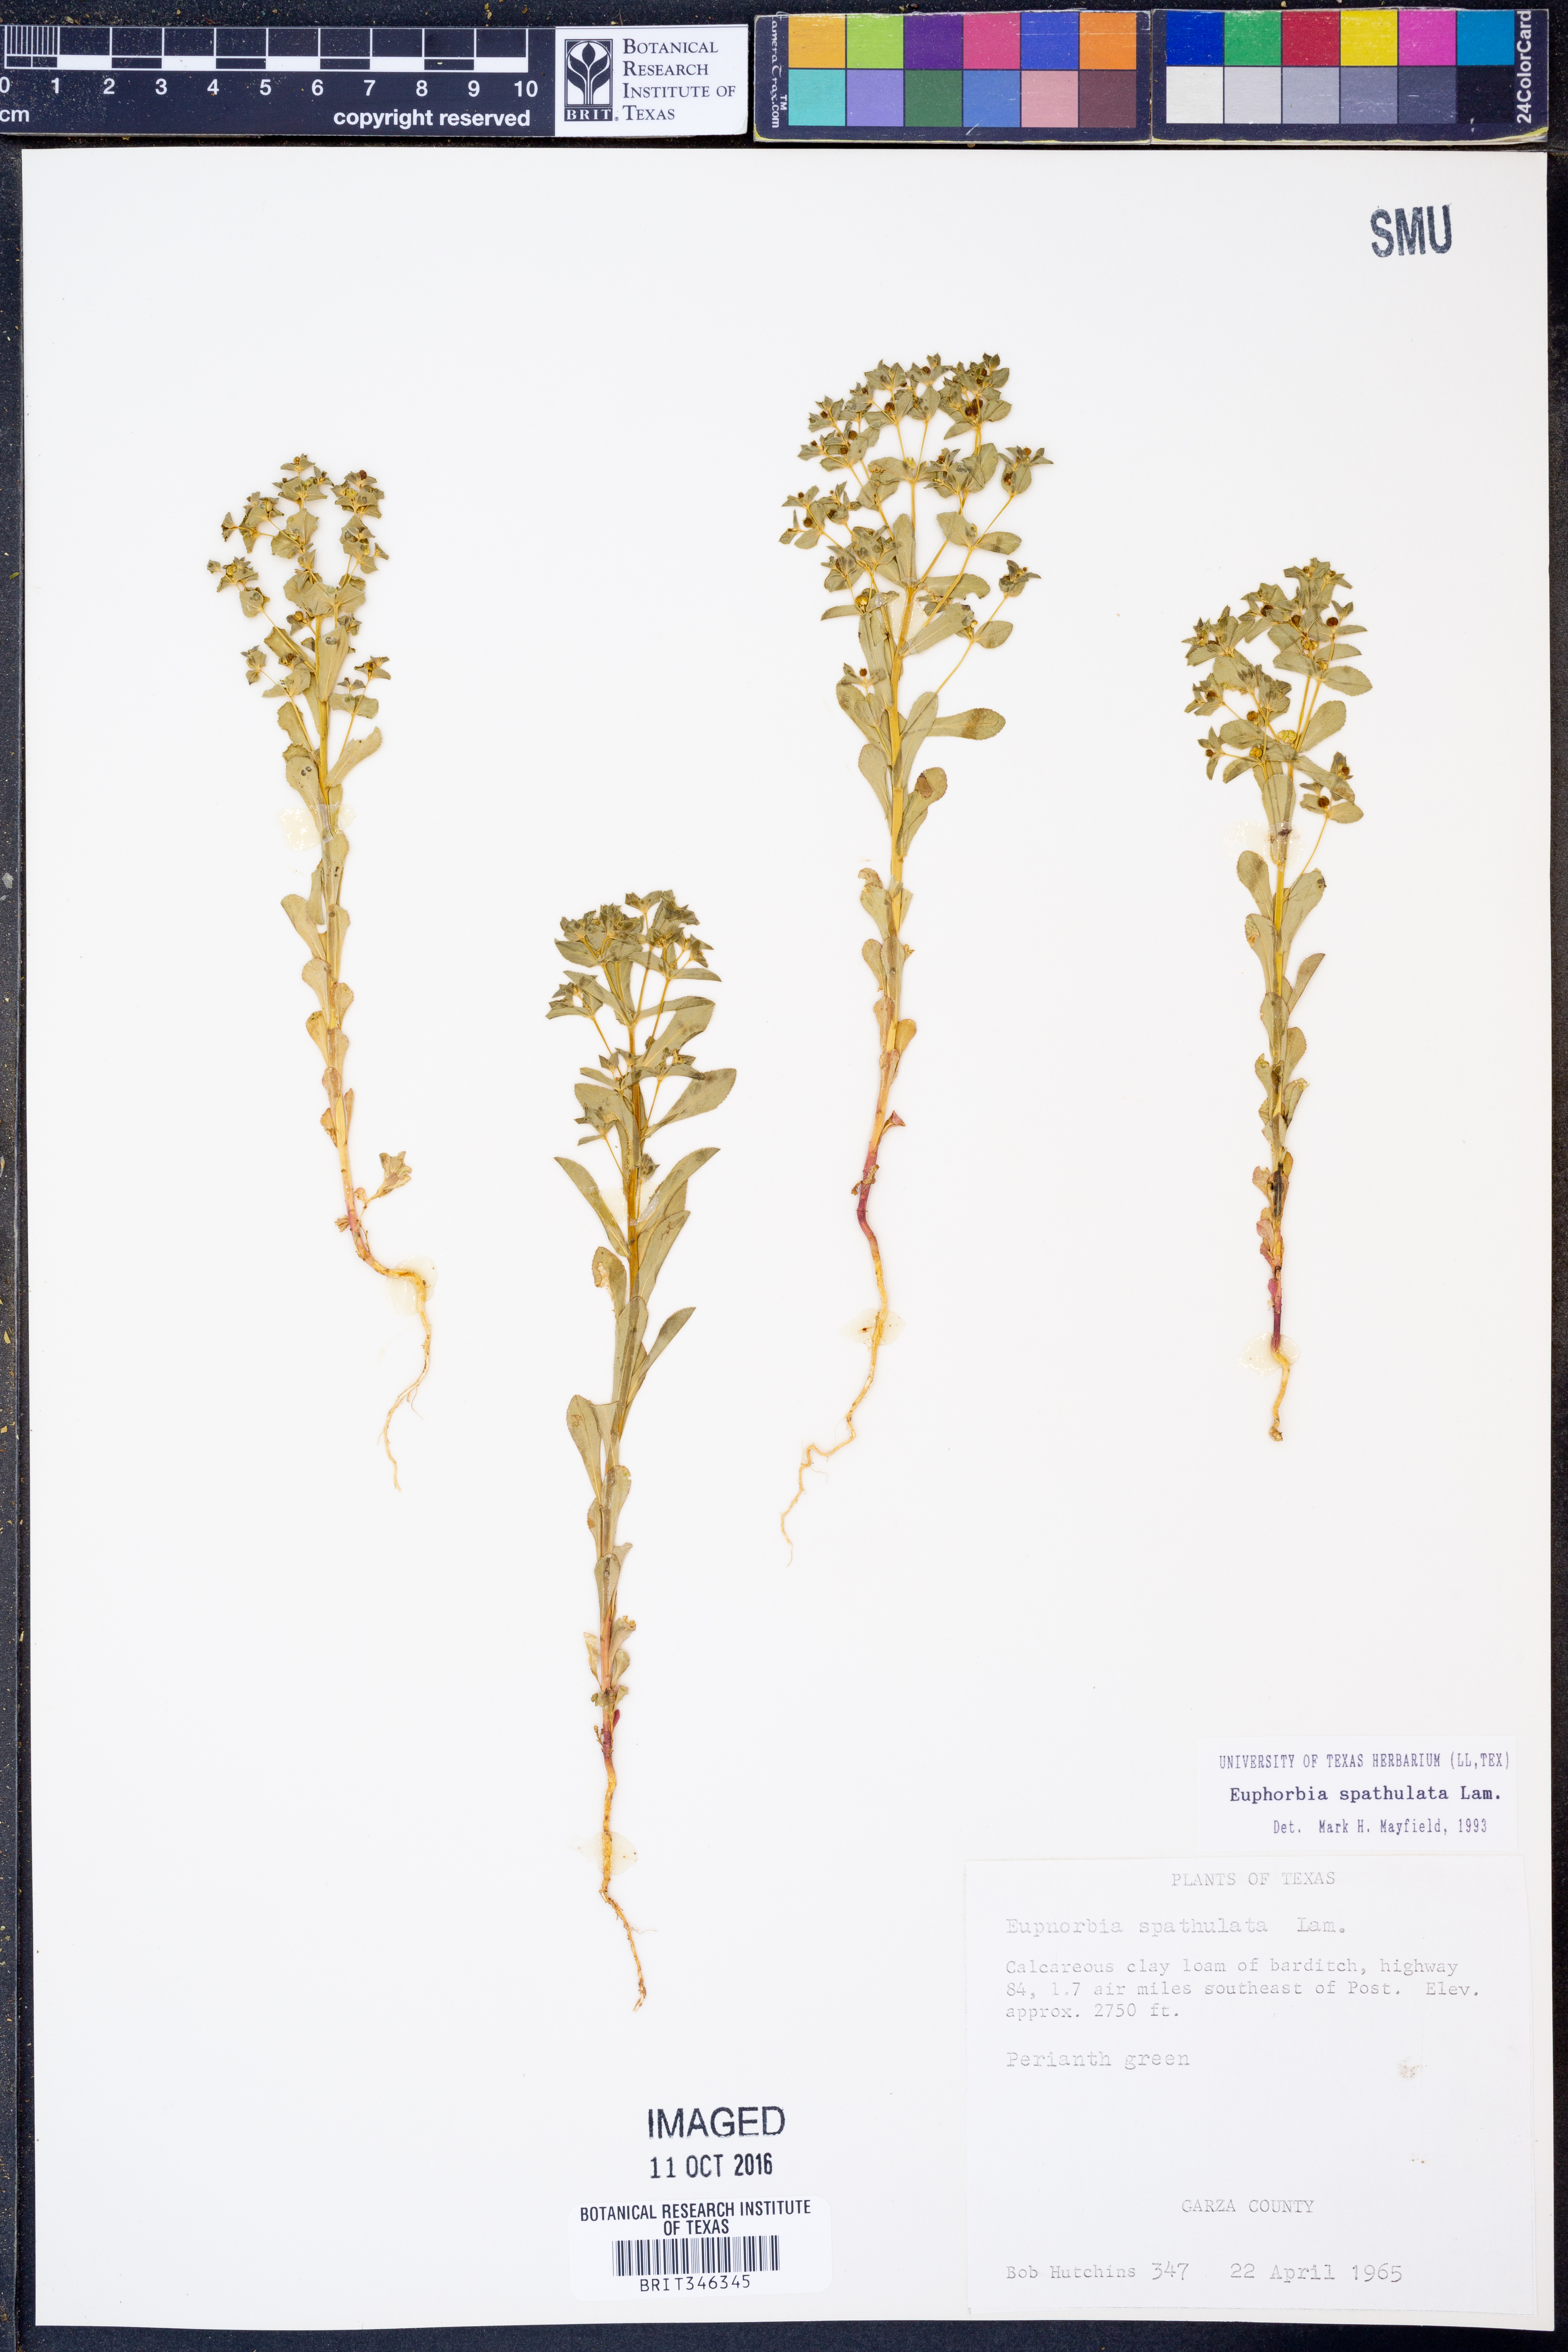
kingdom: Plantae
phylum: Tracheophyta
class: Magnoliopsida
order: Malpighiales
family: Euphorbiaceae
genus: Euphorbia
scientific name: Euphorbia spathulata
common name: Blunt spurge
